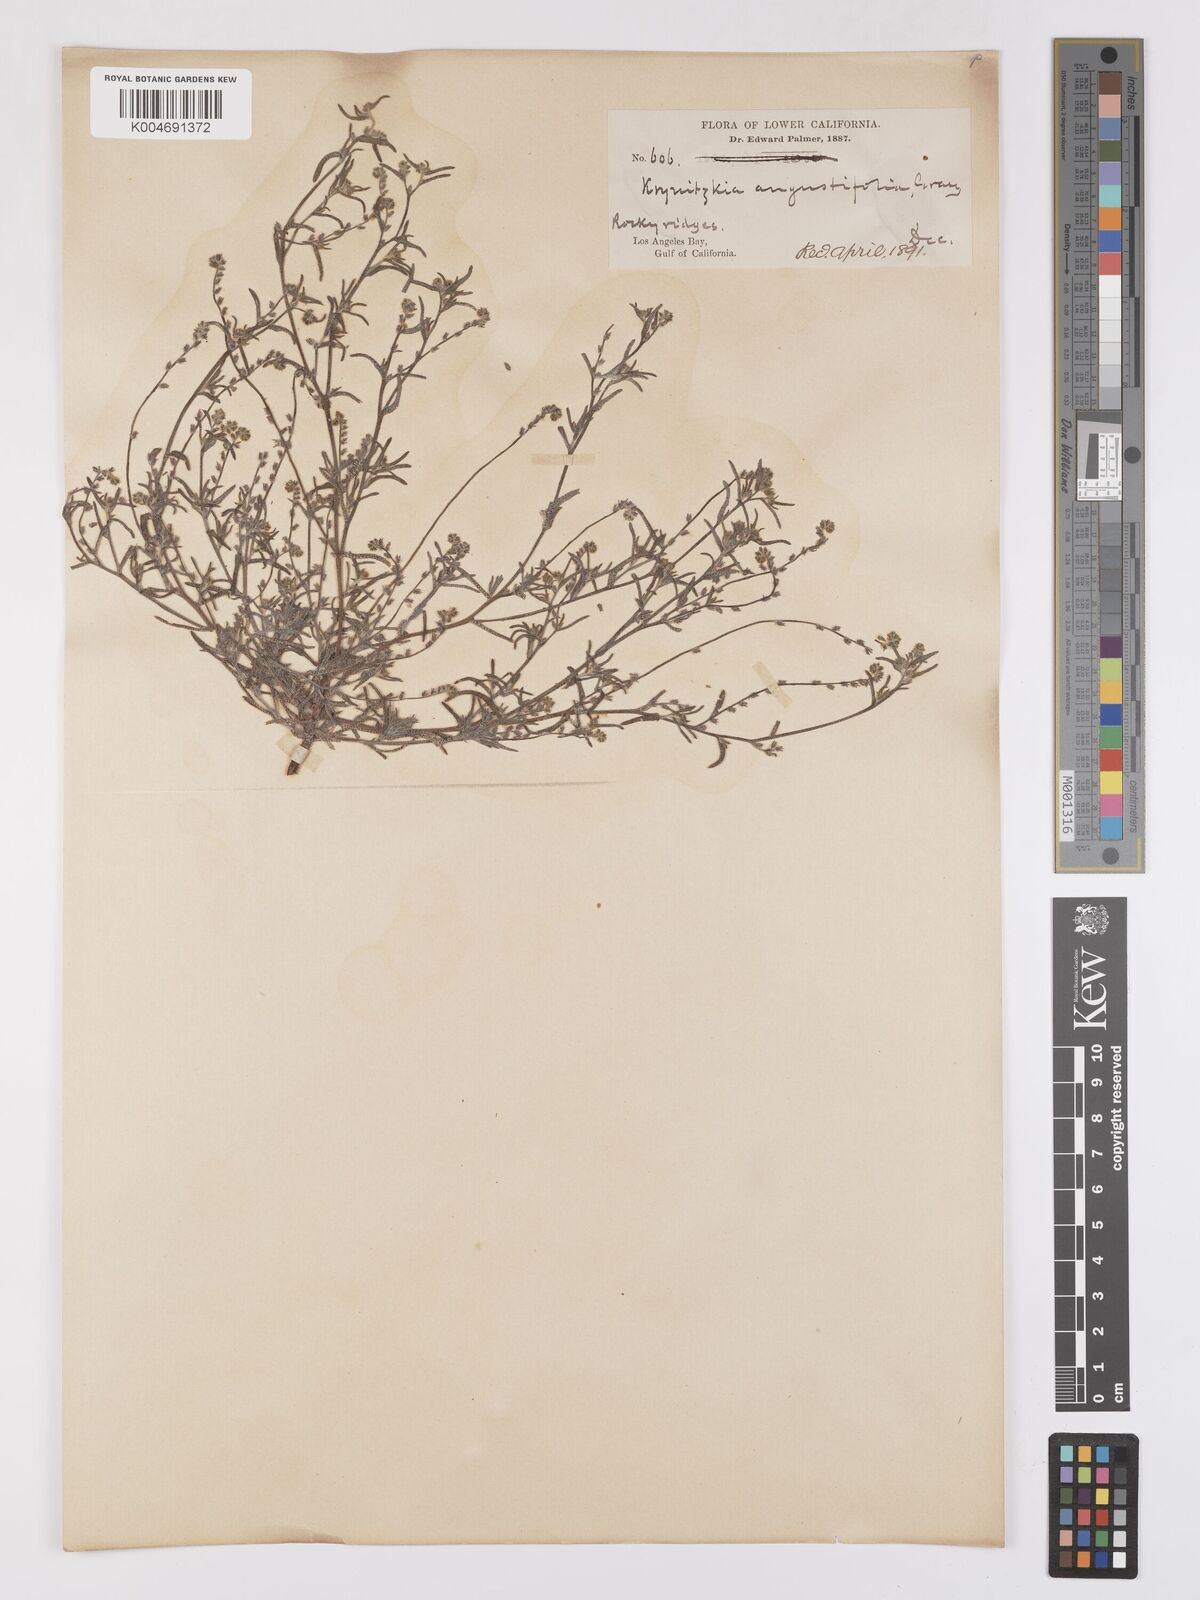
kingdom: Plantae
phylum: Tracheophyta
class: Magnoliopsida
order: Boraginales
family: Boraginaceae
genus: Johnstonella
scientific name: Johnstonella angustifolia
